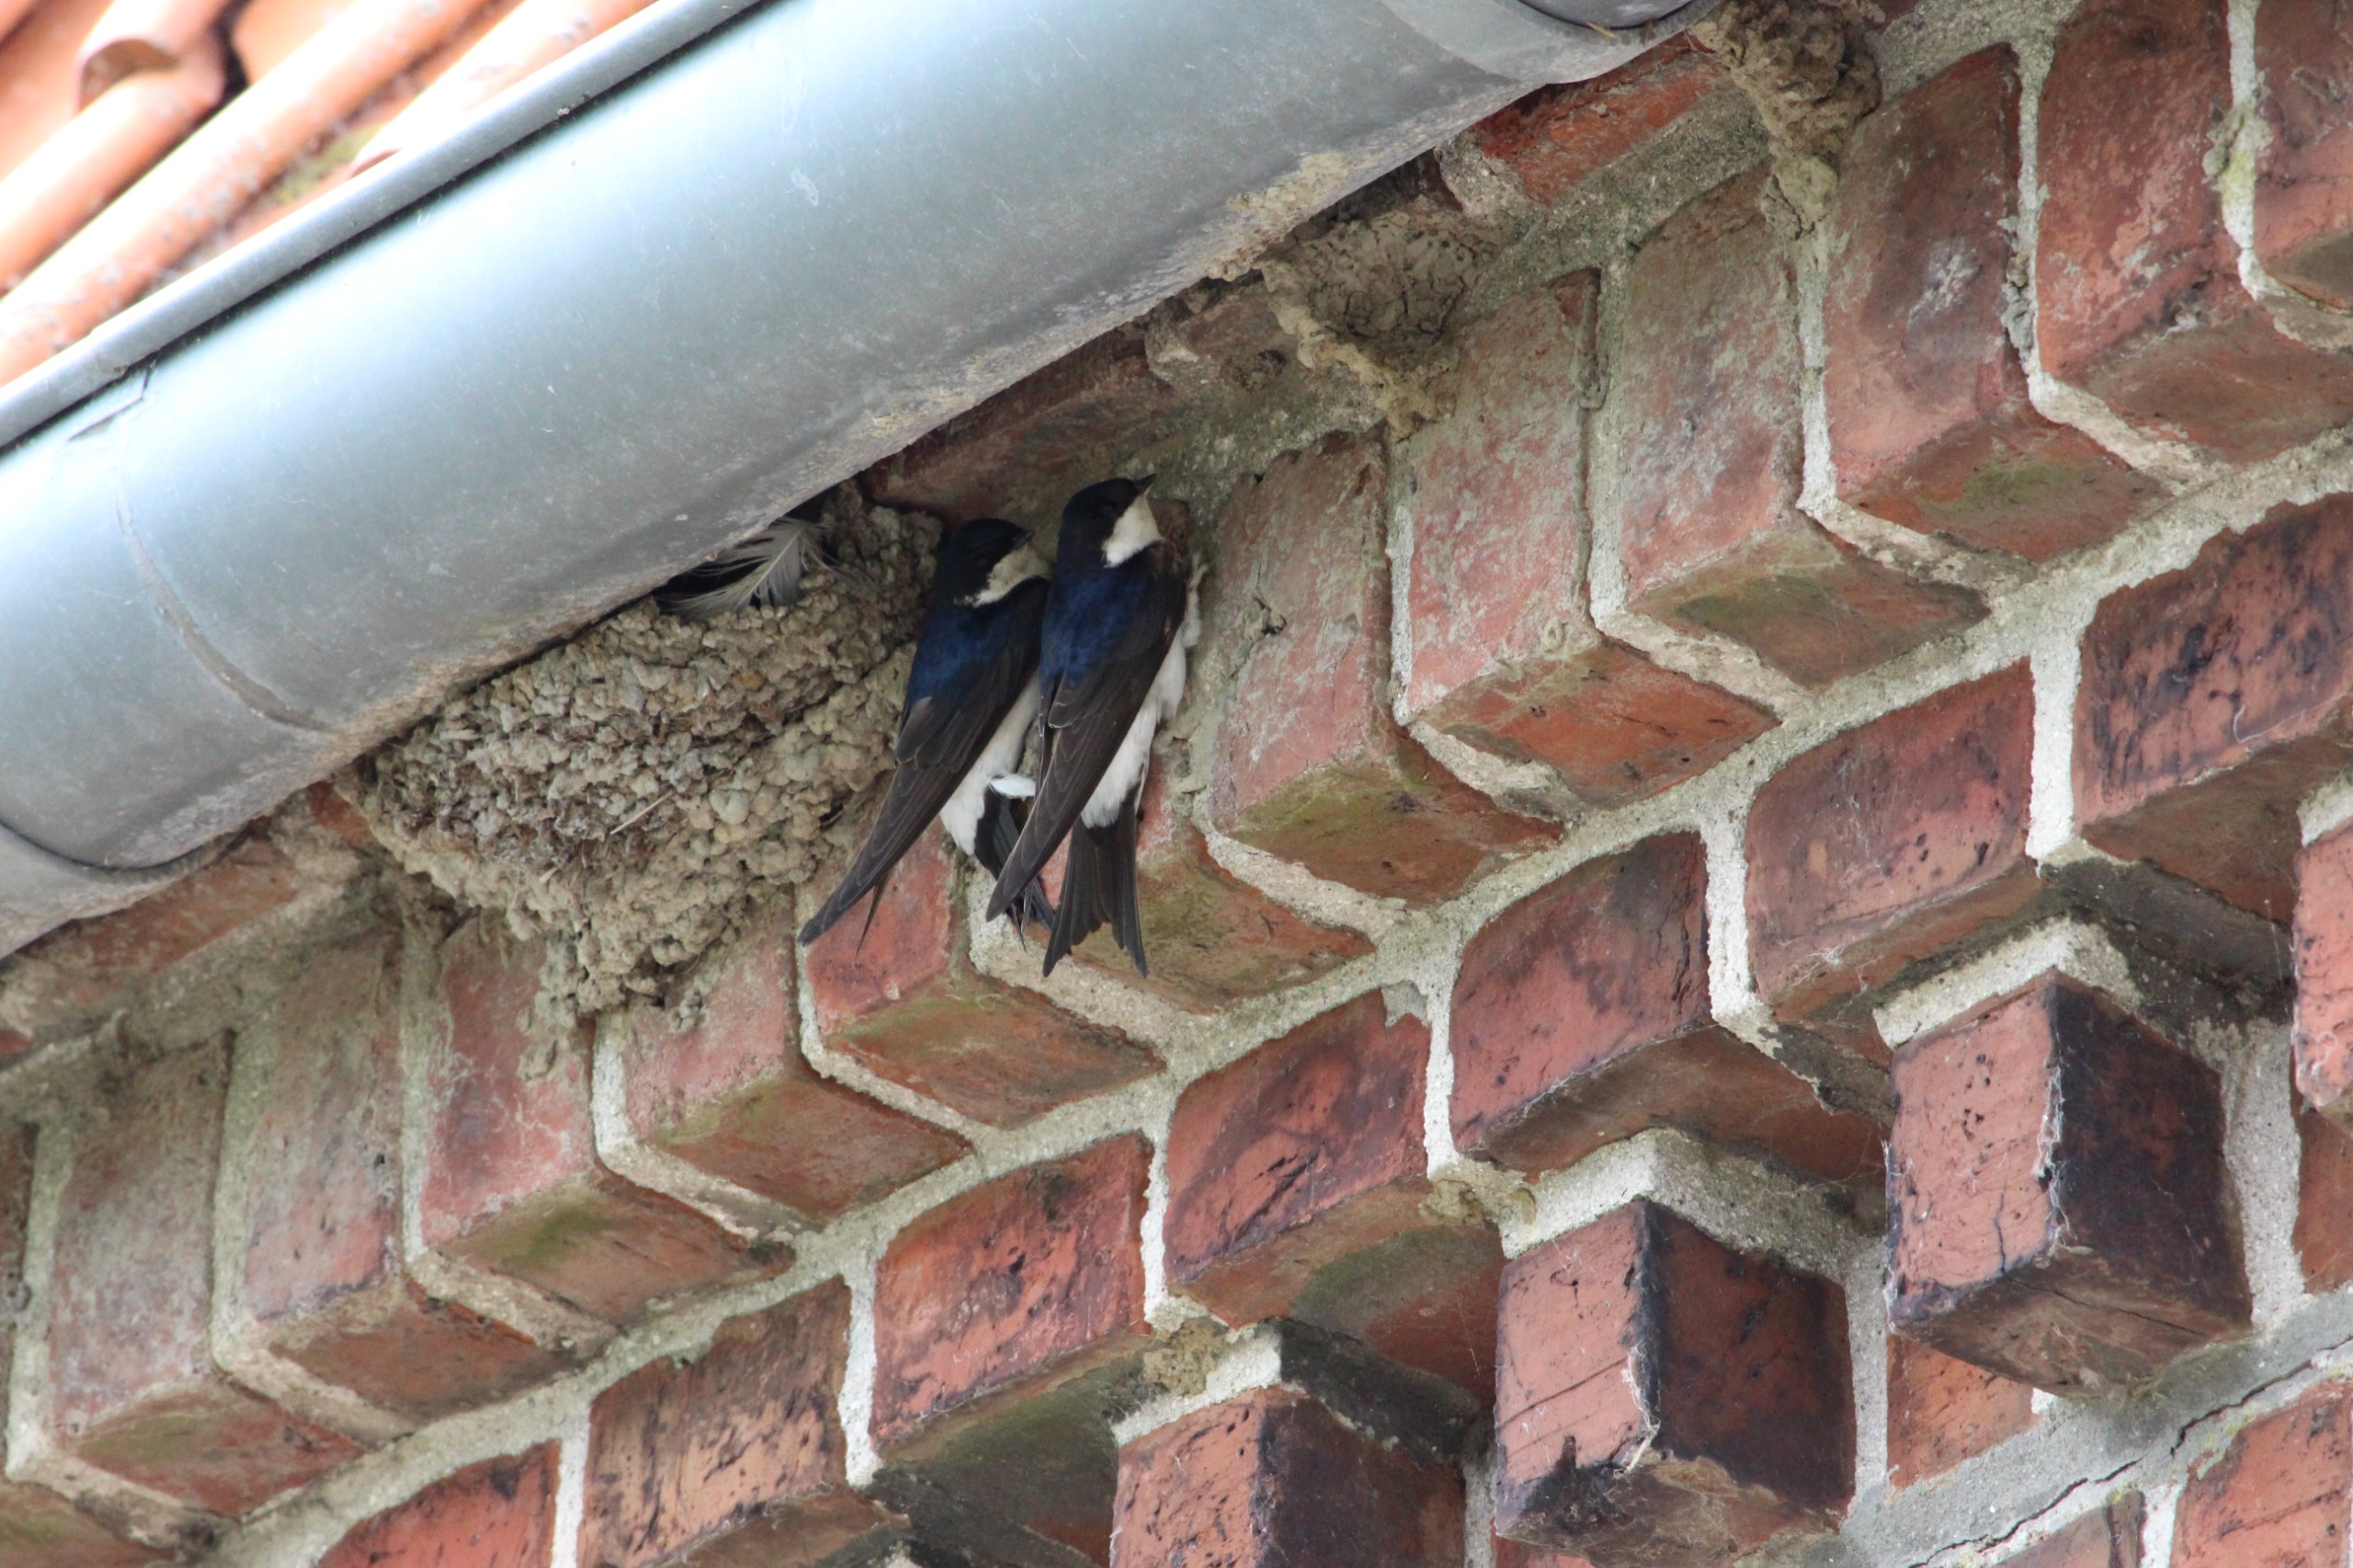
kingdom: Animalia
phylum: Chordata
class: Aves
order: Passeriformes
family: Hirundinidae
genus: Delichon
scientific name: Delichon urbicum
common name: Bysvale
